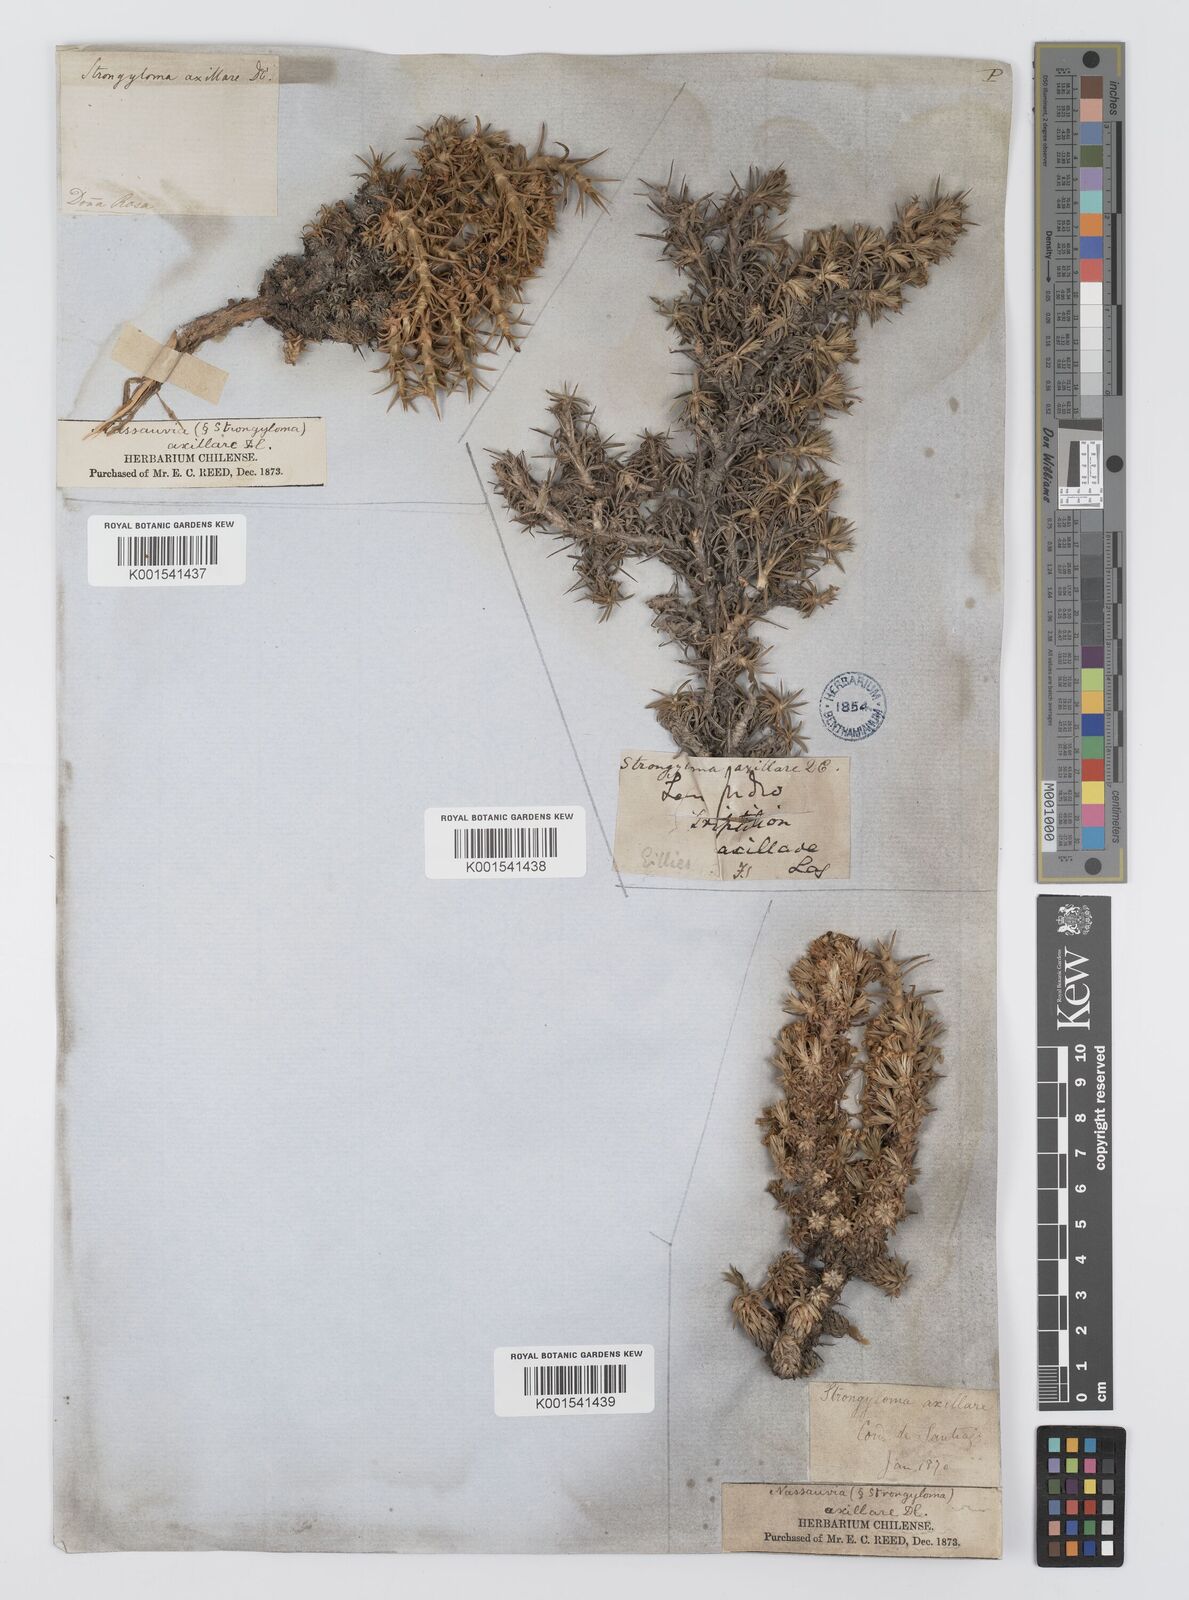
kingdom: Plantae
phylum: Tracheophyta
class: Magnoliopsida
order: Asterales
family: Asteraceae
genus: Nassauvia
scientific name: Nassauvia axillaris
